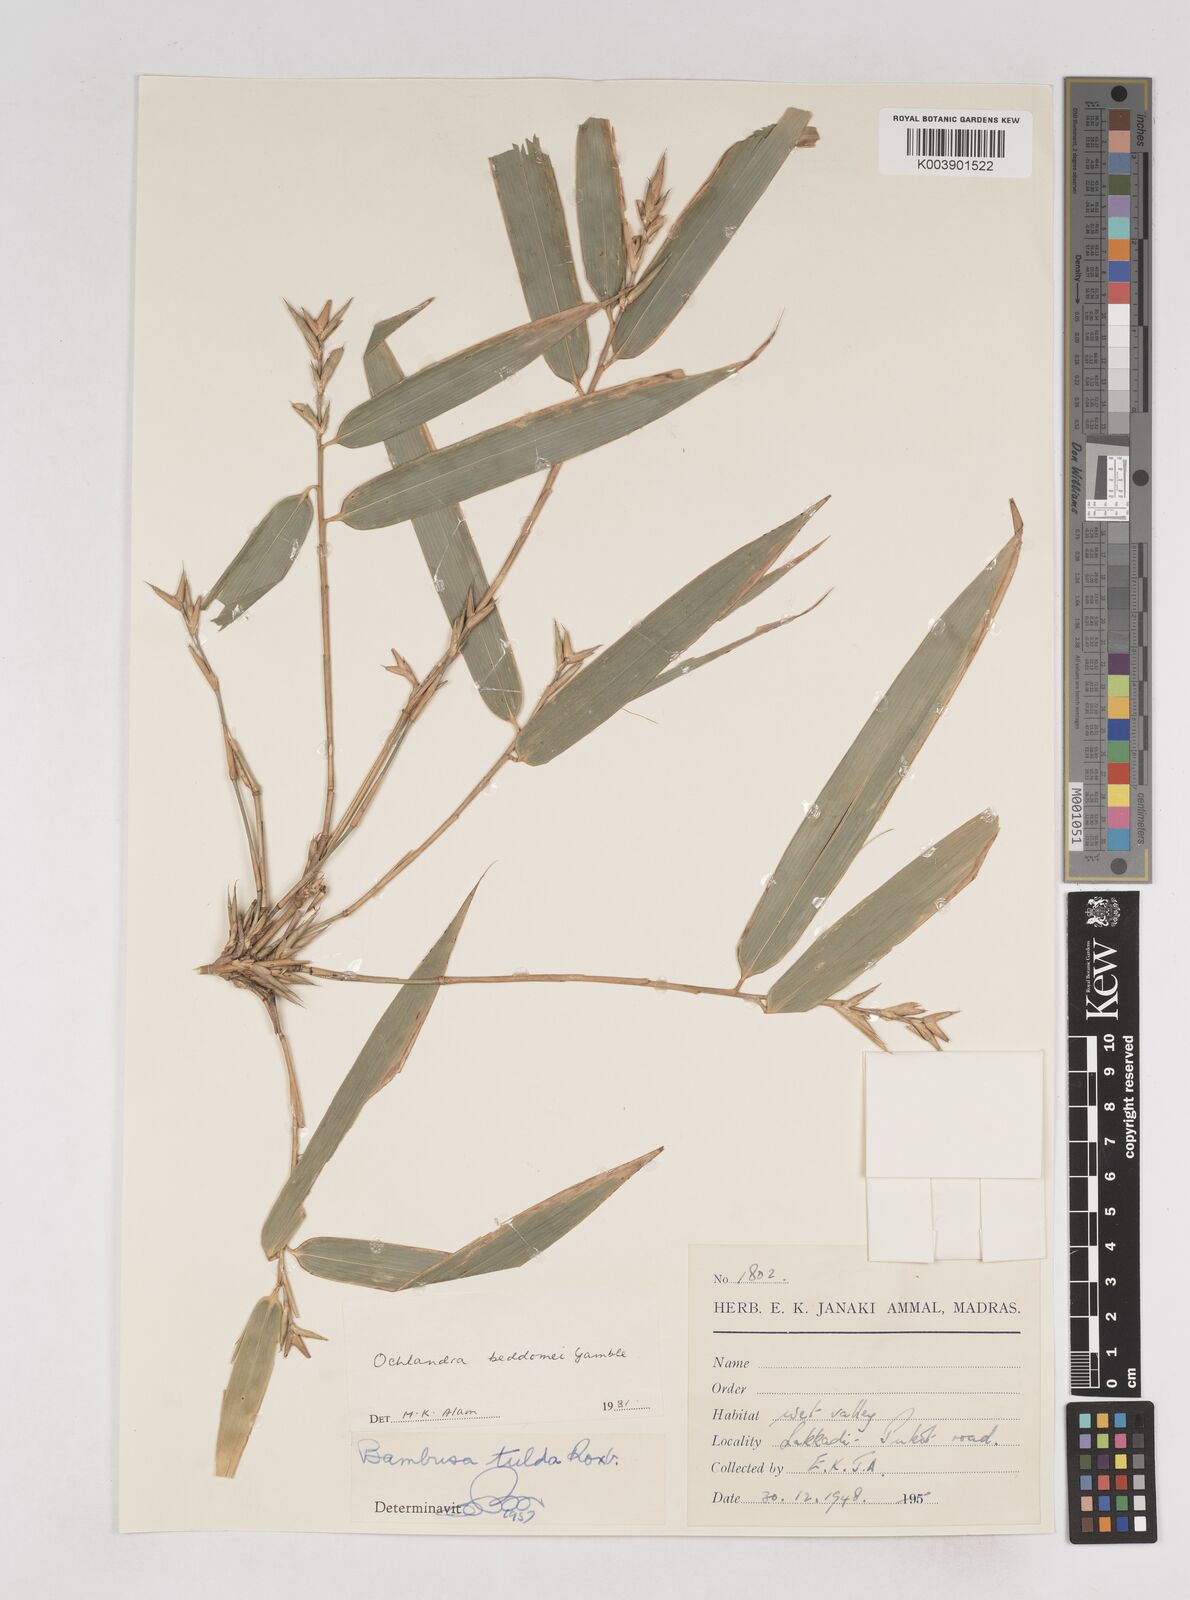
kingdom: Plantae
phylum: Tracheophyta
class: Liliopsida
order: Poales
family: Poaceae
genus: Ochlandra
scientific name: Ochlandra beddomei
